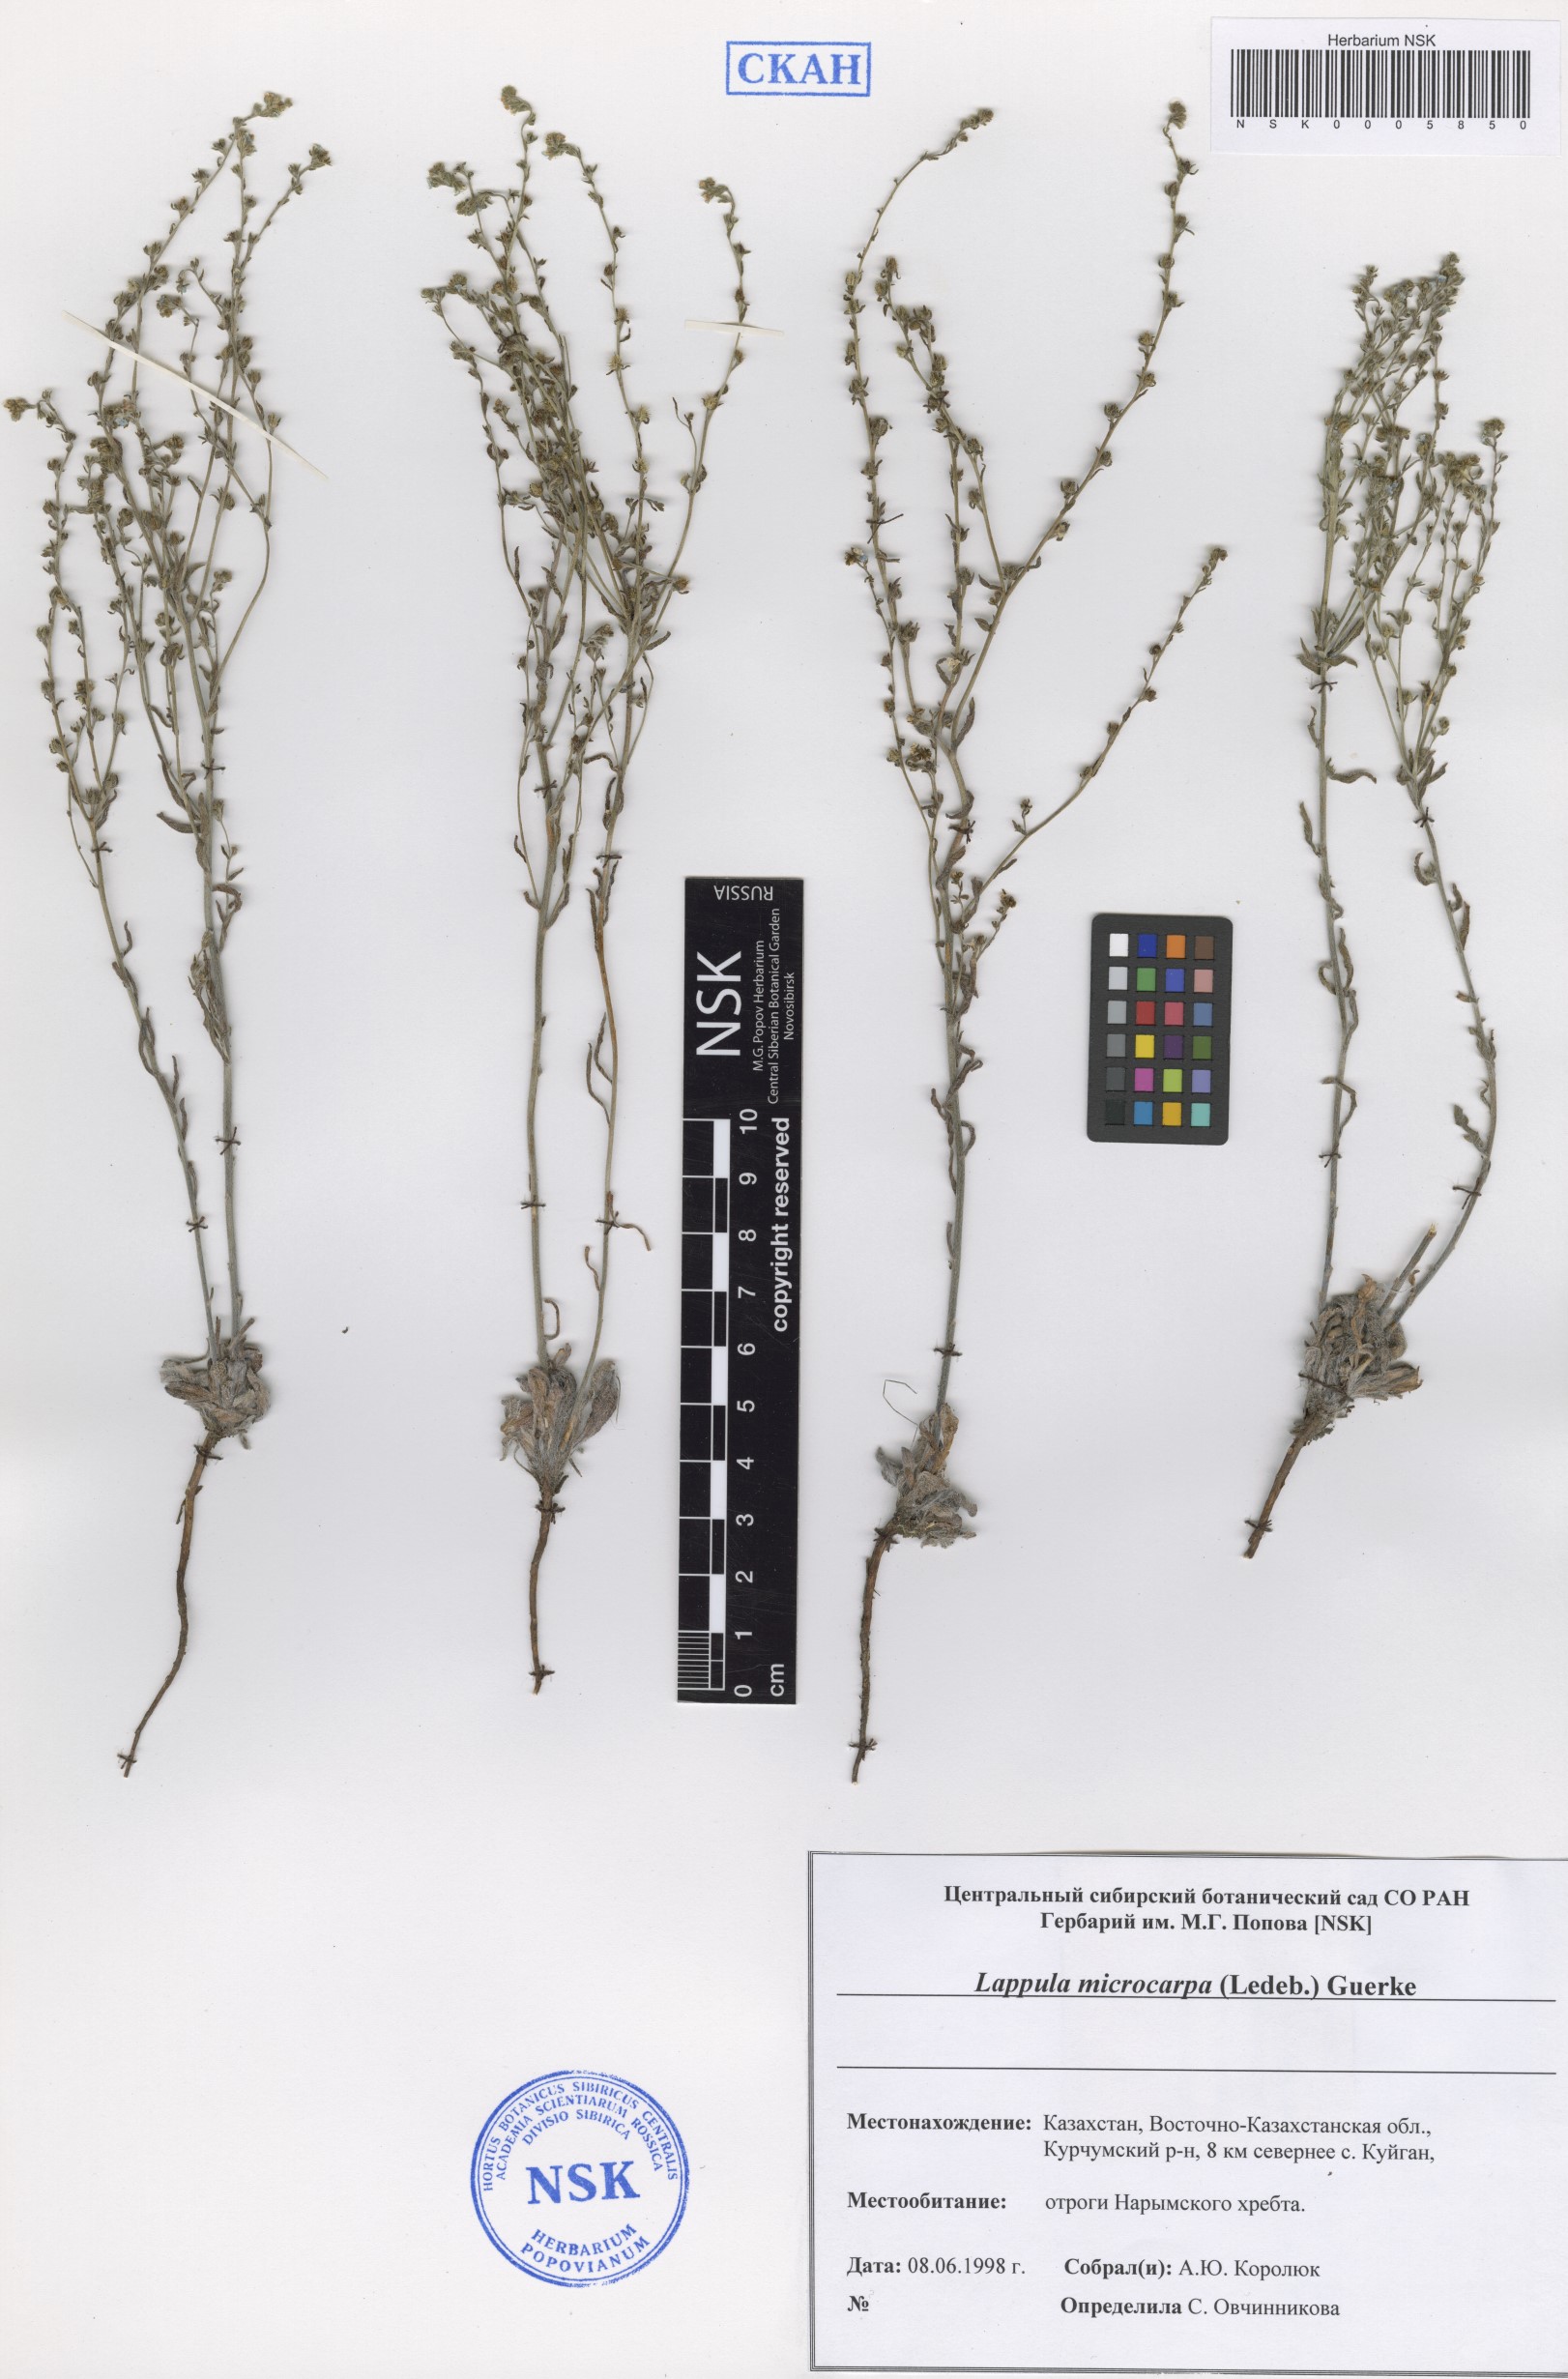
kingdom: Plantae
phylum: Tracheophyta
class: Magnoliopsida
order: Boraginales
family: Boraginaceae
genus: Lappula
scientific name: Lappula microcarpa
